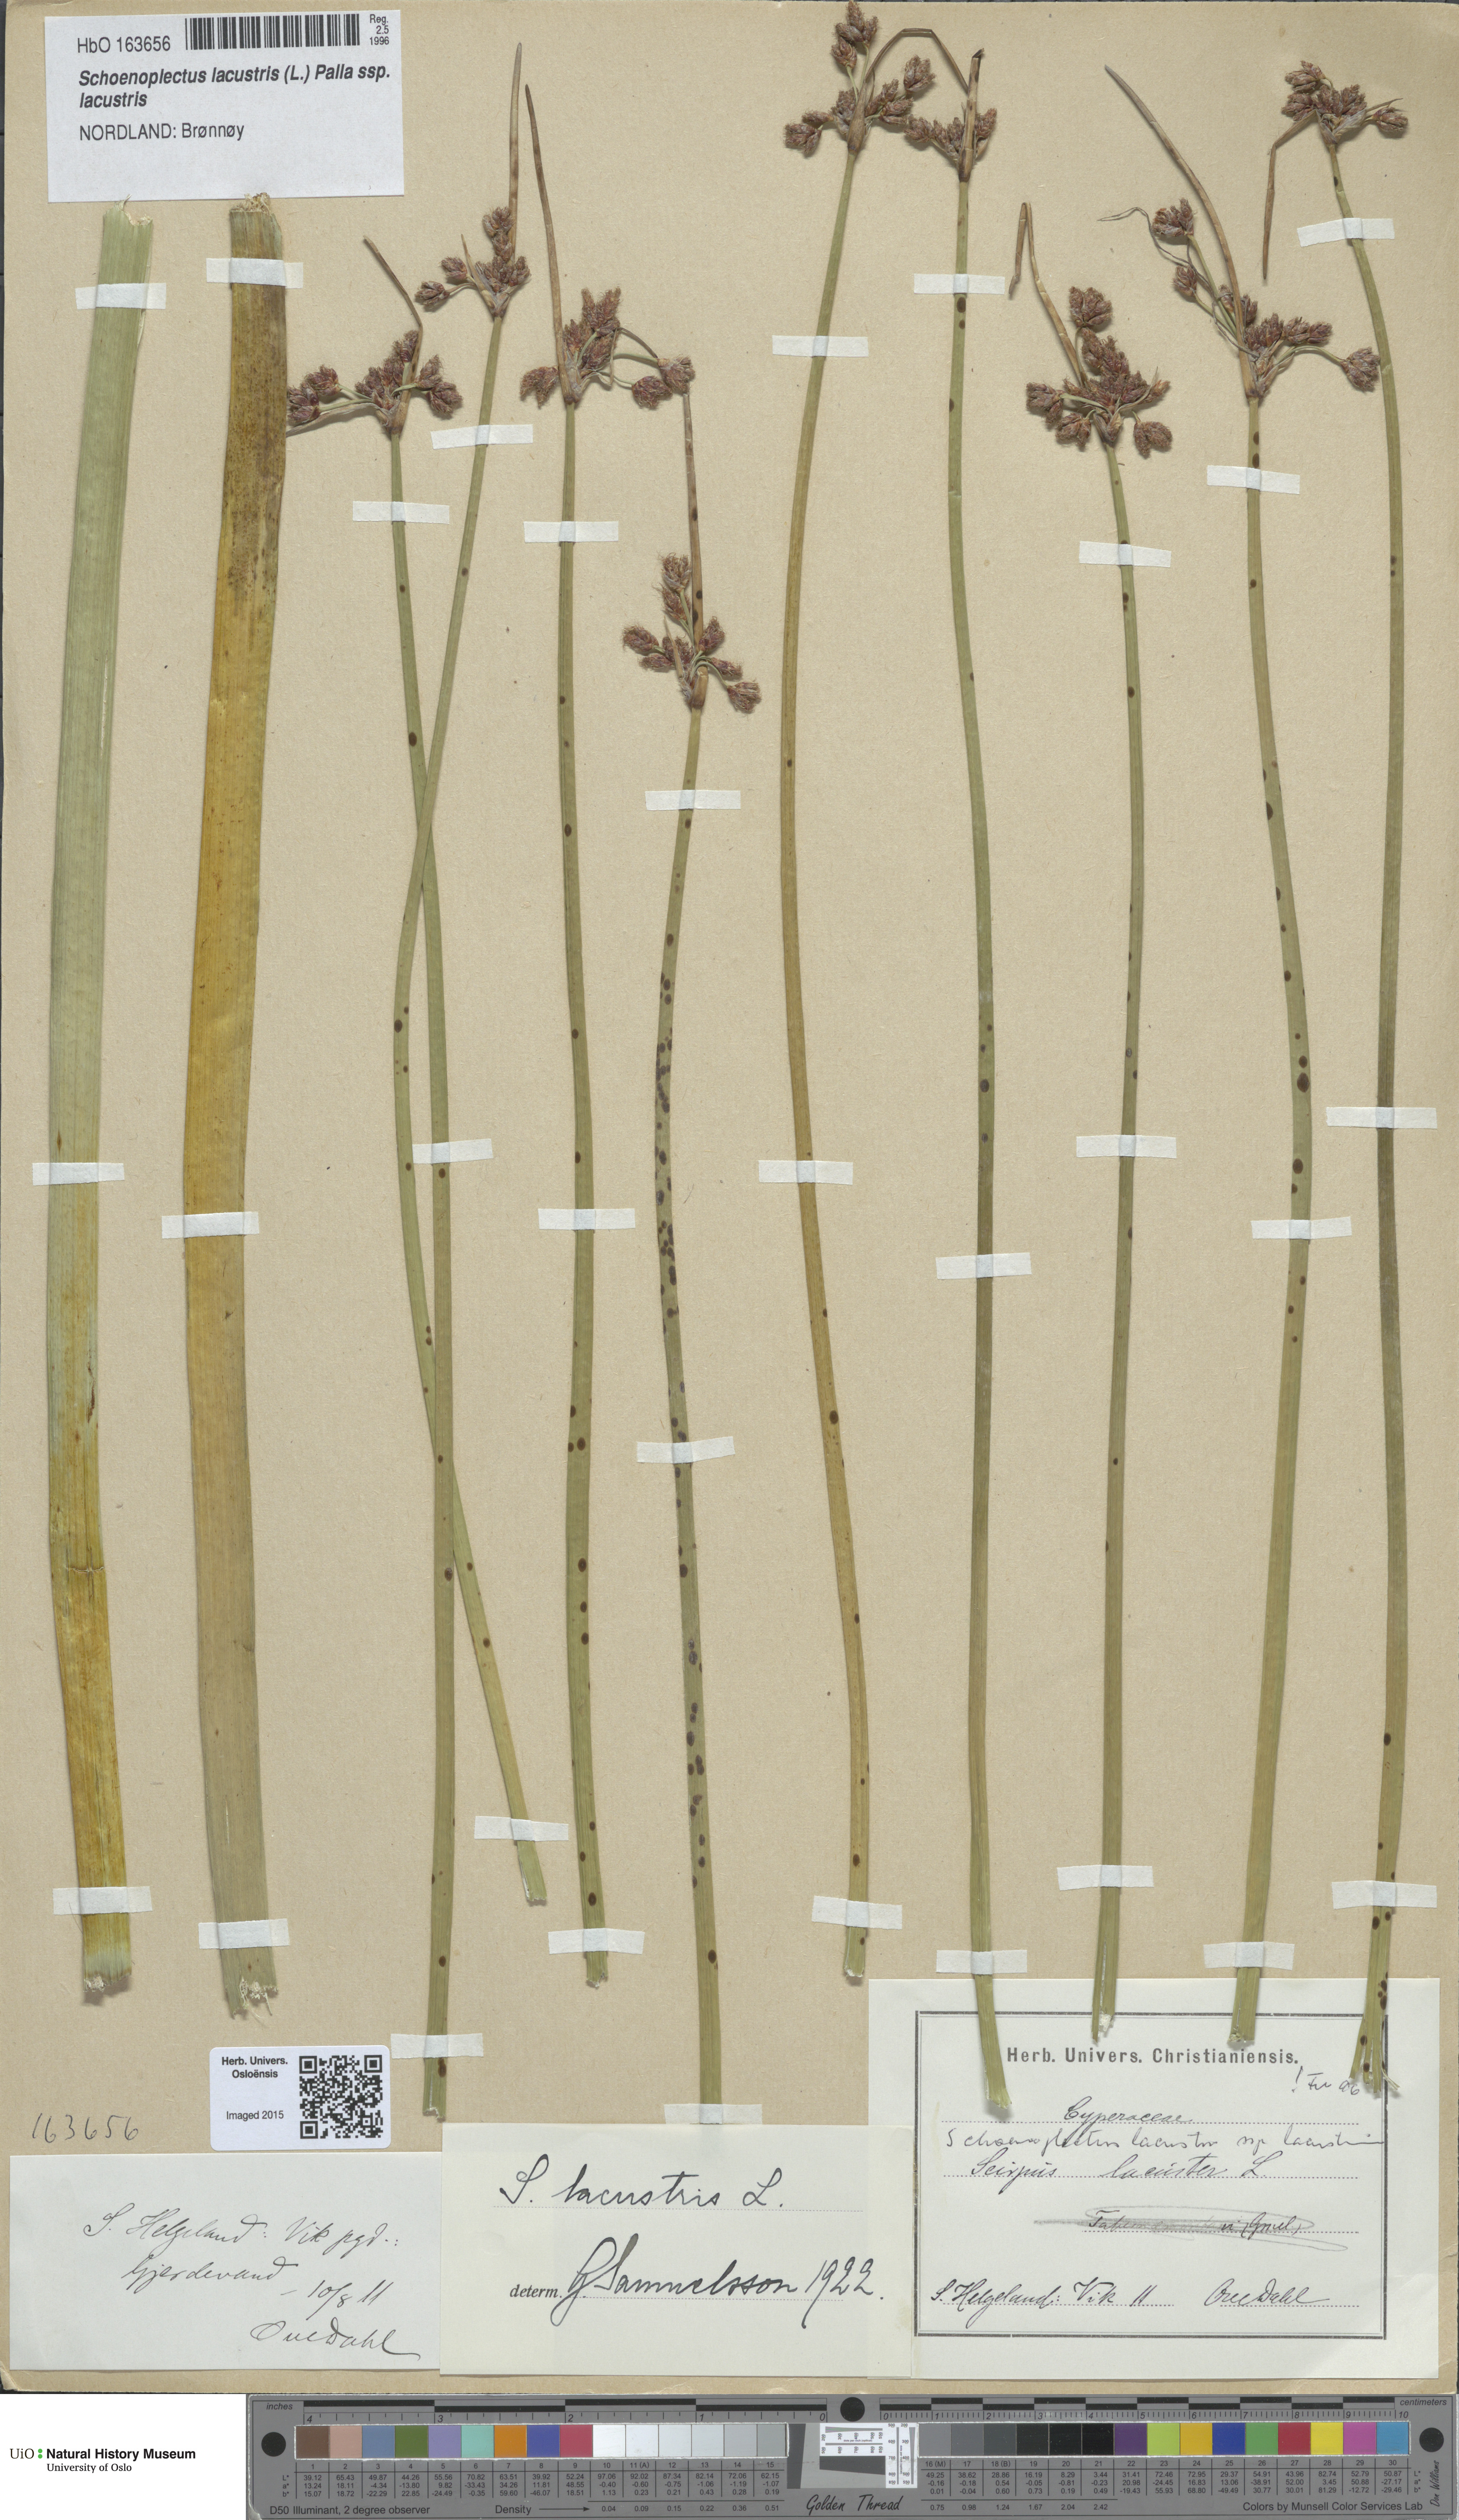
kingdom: Plantae
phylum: Tracheophyta
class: Liliopsida
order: Poales
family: Cyperaceae
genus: Schoenoplectus
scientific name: Schoenoplectus lacustris
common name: Common club-rush
